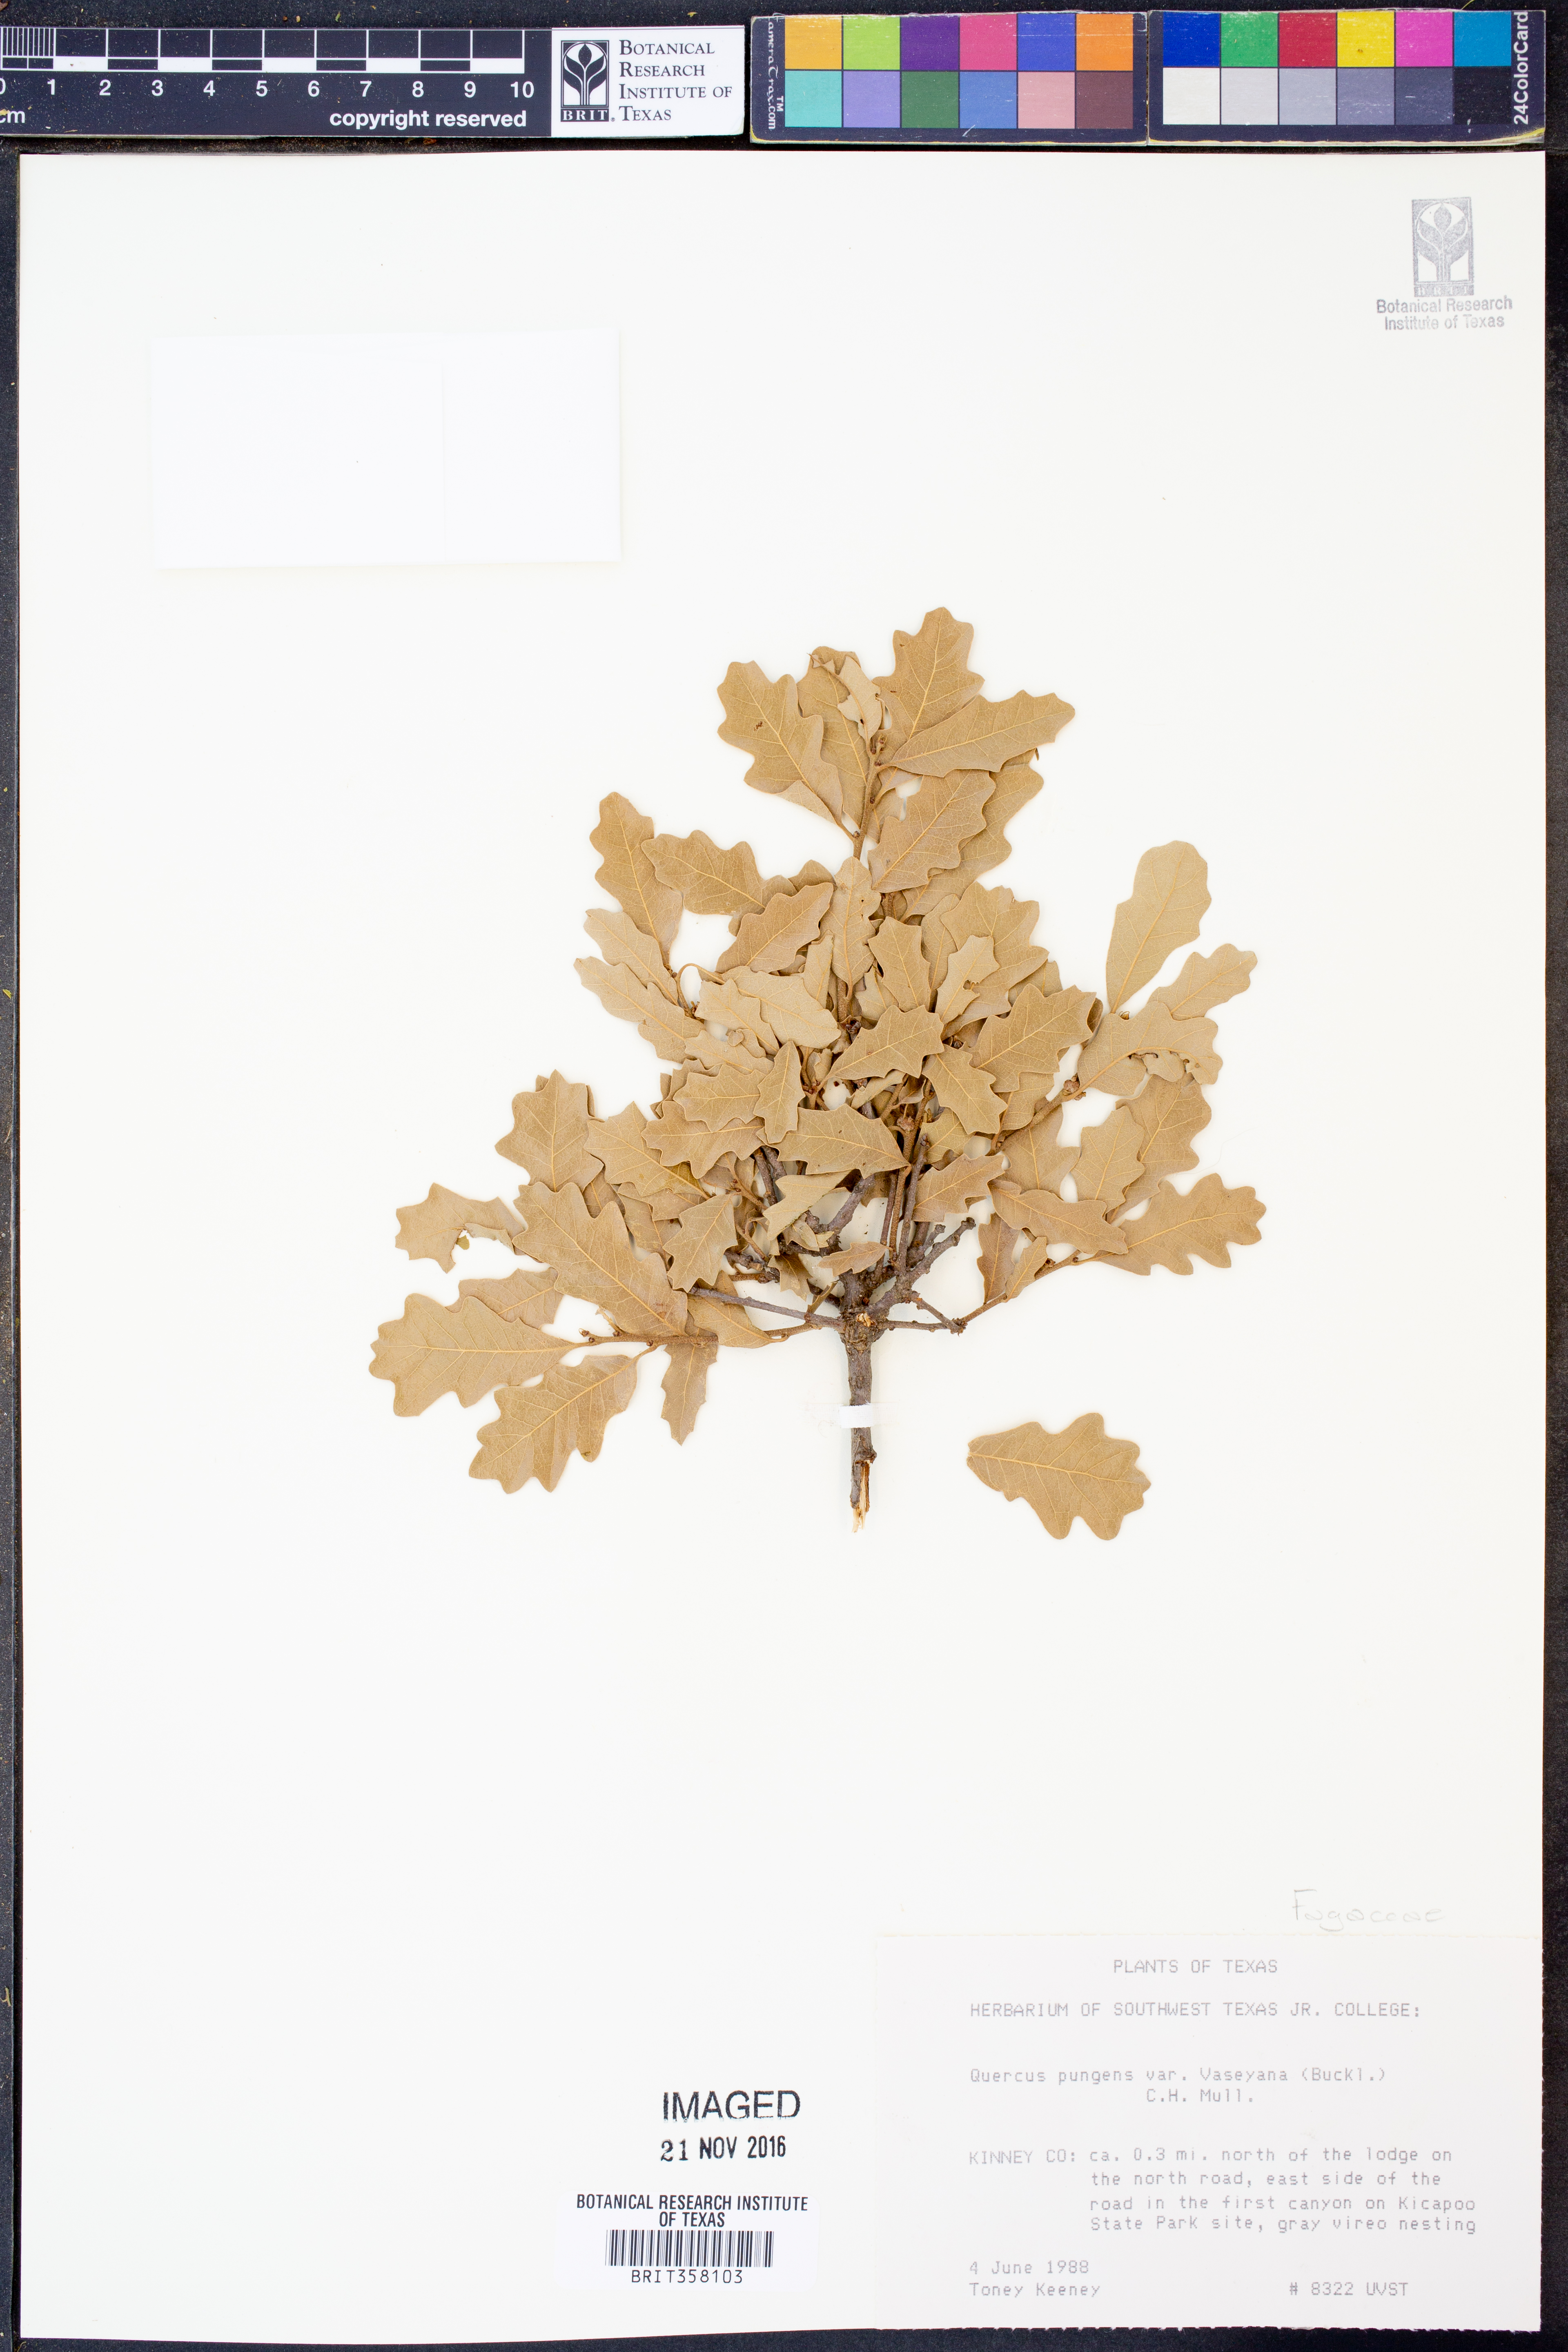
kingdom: Plantae
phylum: Tracheophyta
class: Magnoliopsida
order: Fagales
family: Fagaceae
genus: Quercus
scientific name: Quercus vaseyana
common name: Sandpaper oak
